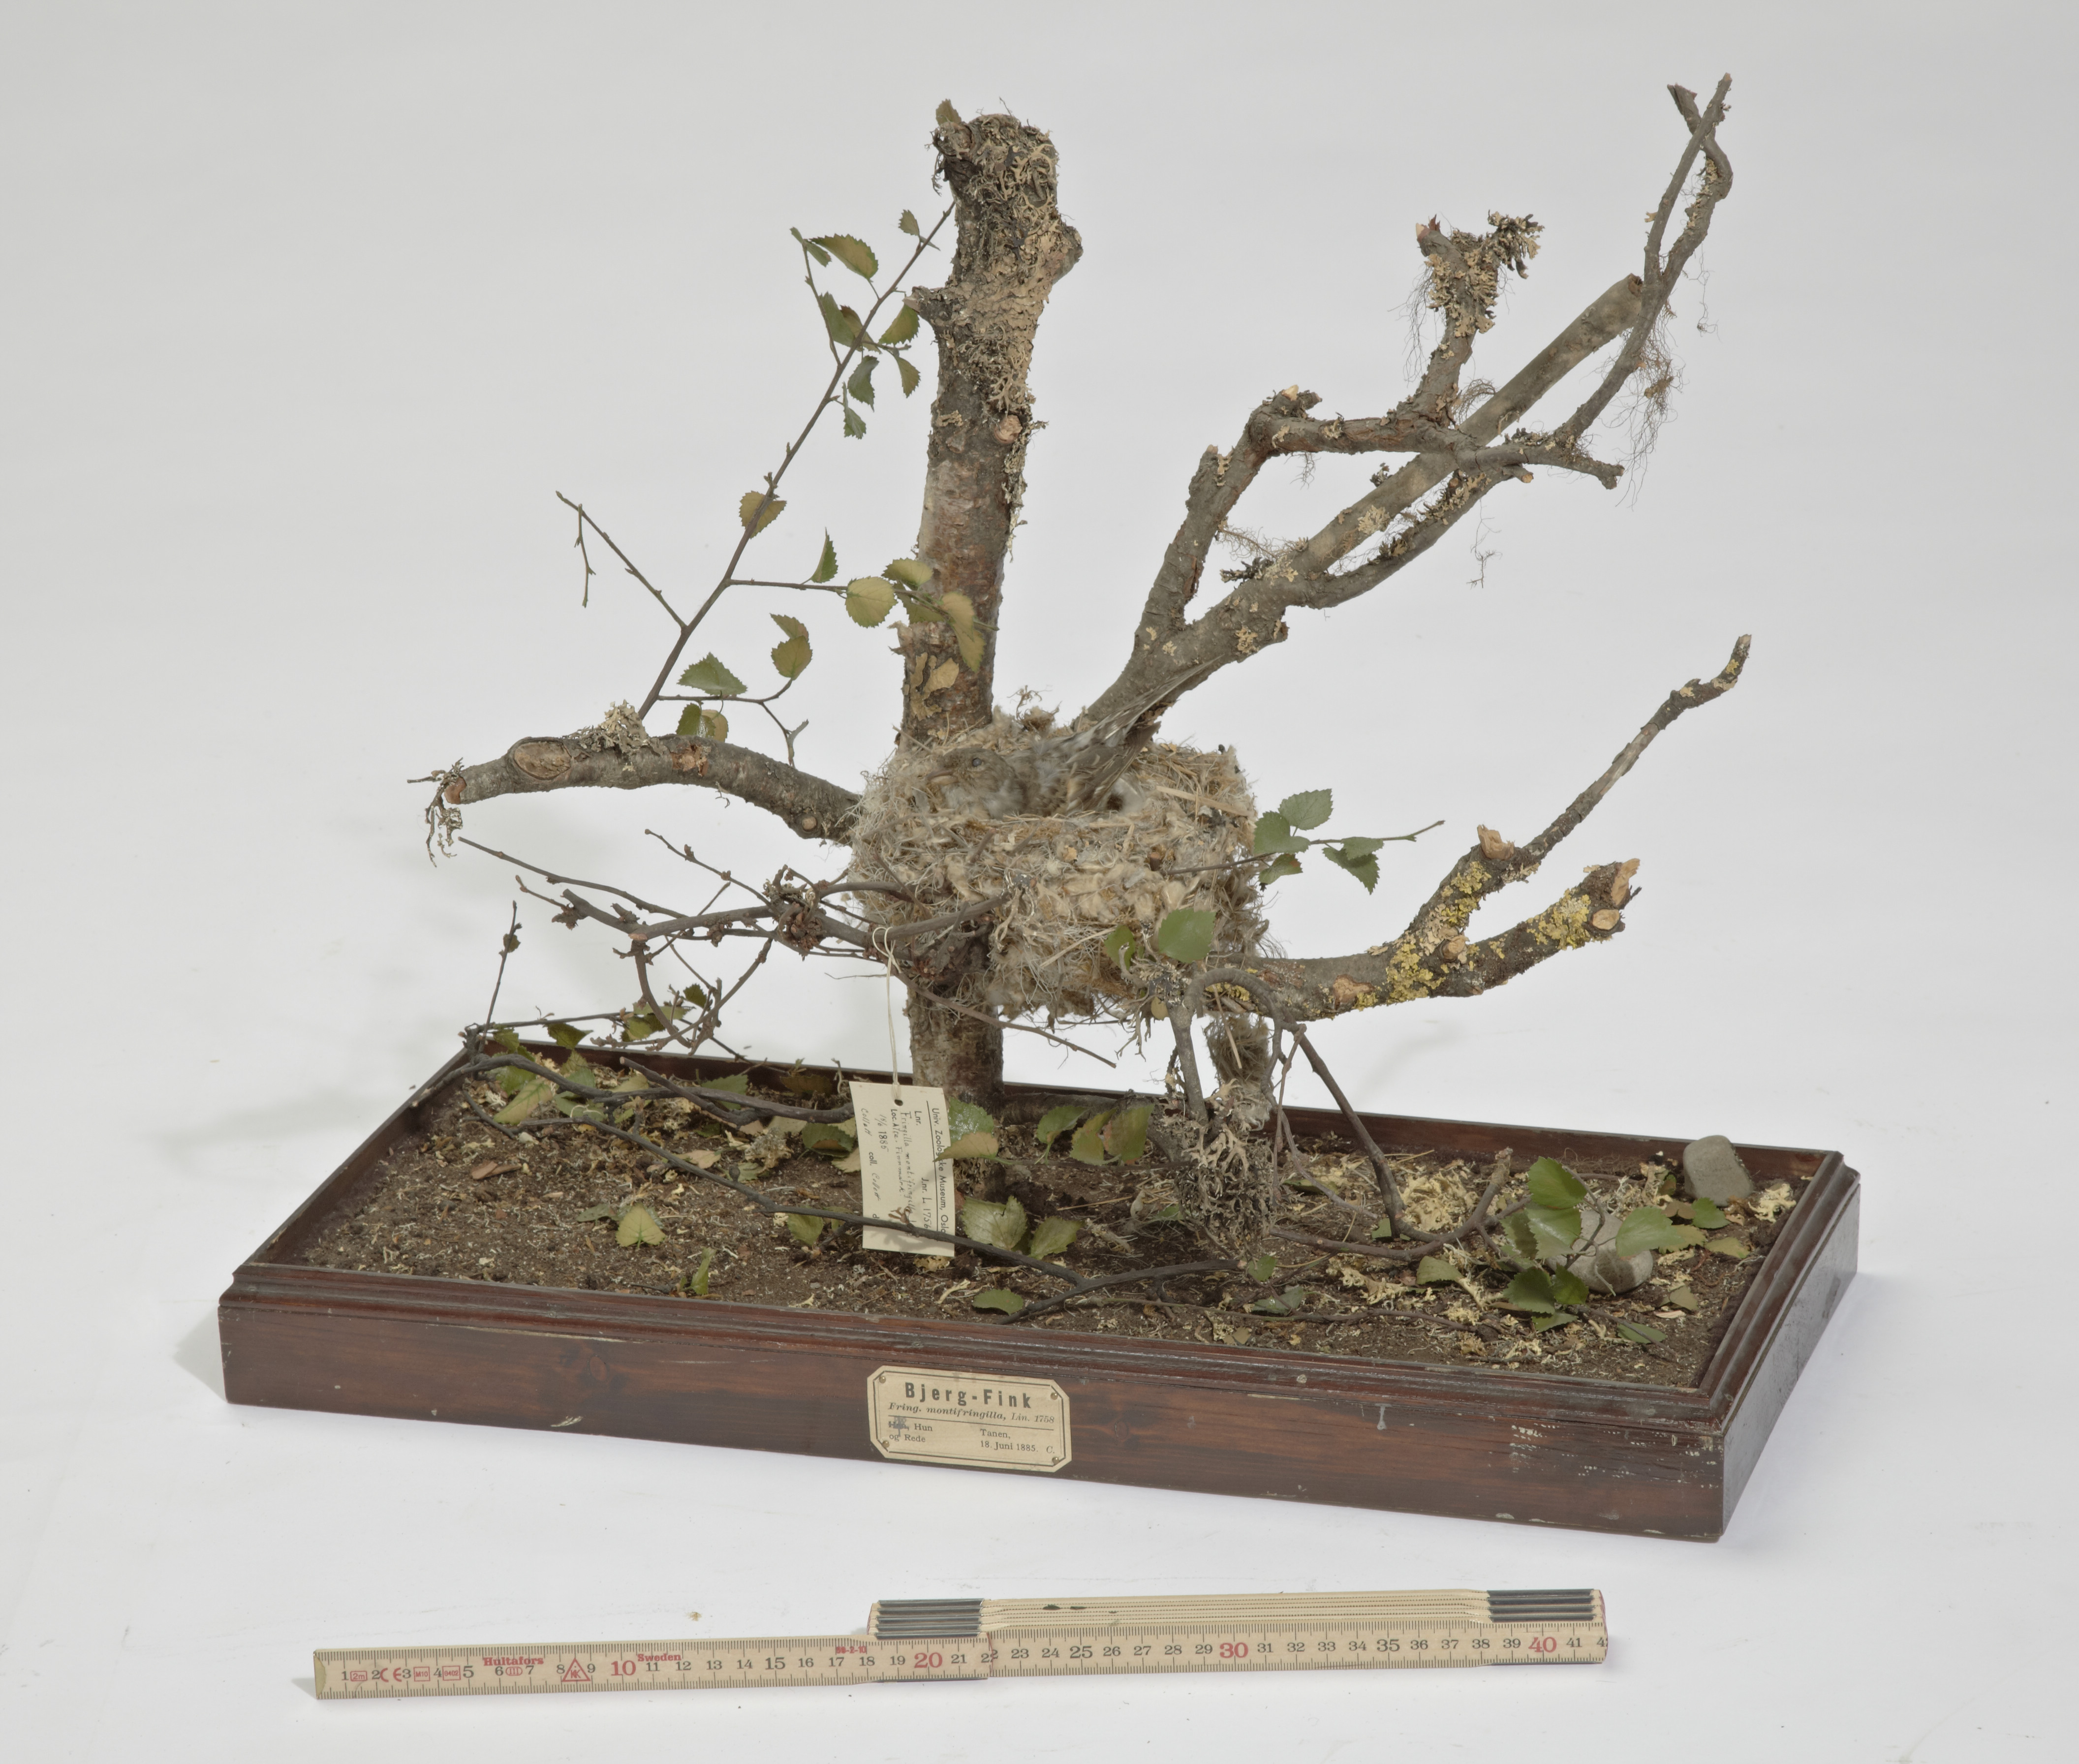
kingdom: Animalia
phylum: Chordata
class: Aves
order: Passeriformes
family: Fringillidae
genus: Fringilla
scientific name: Fringilla montifringilla
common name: Brambling
